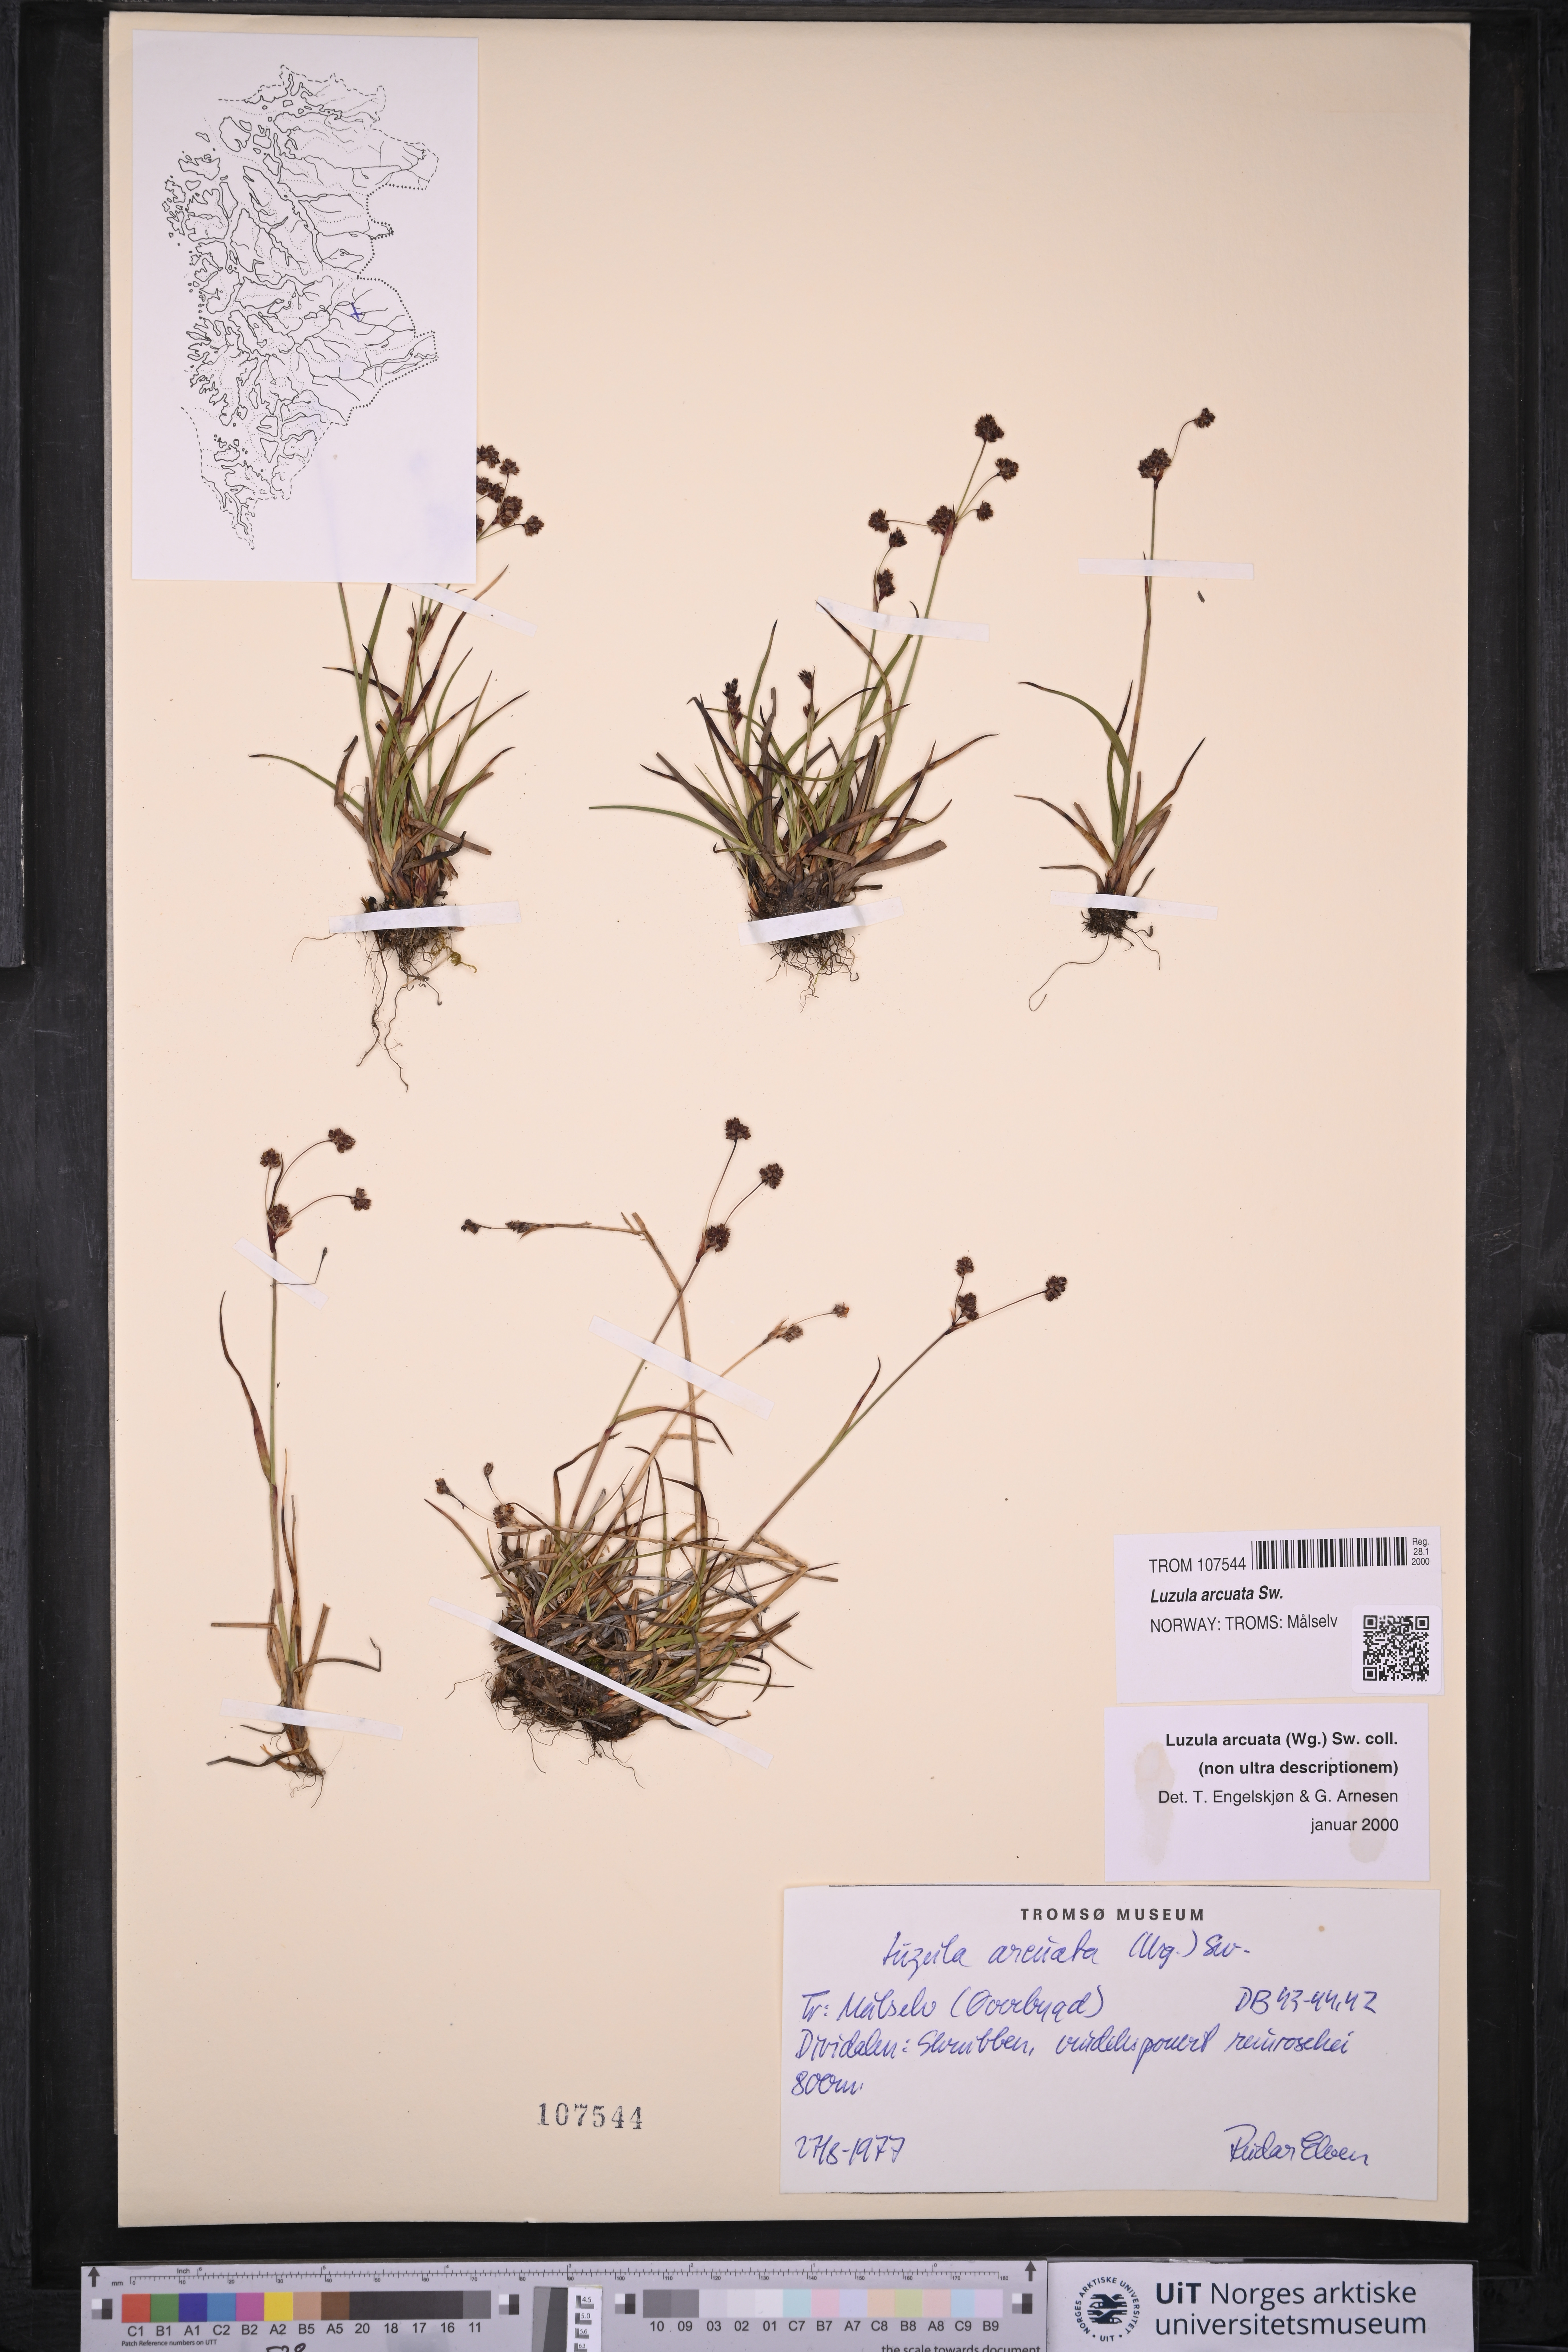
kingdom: Plantae
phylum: Tracheophyta
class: Liliopsida
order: Poales
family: Juncaceae
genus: Luzula
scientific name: Luzula arcuata
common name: Curved wood-rush
